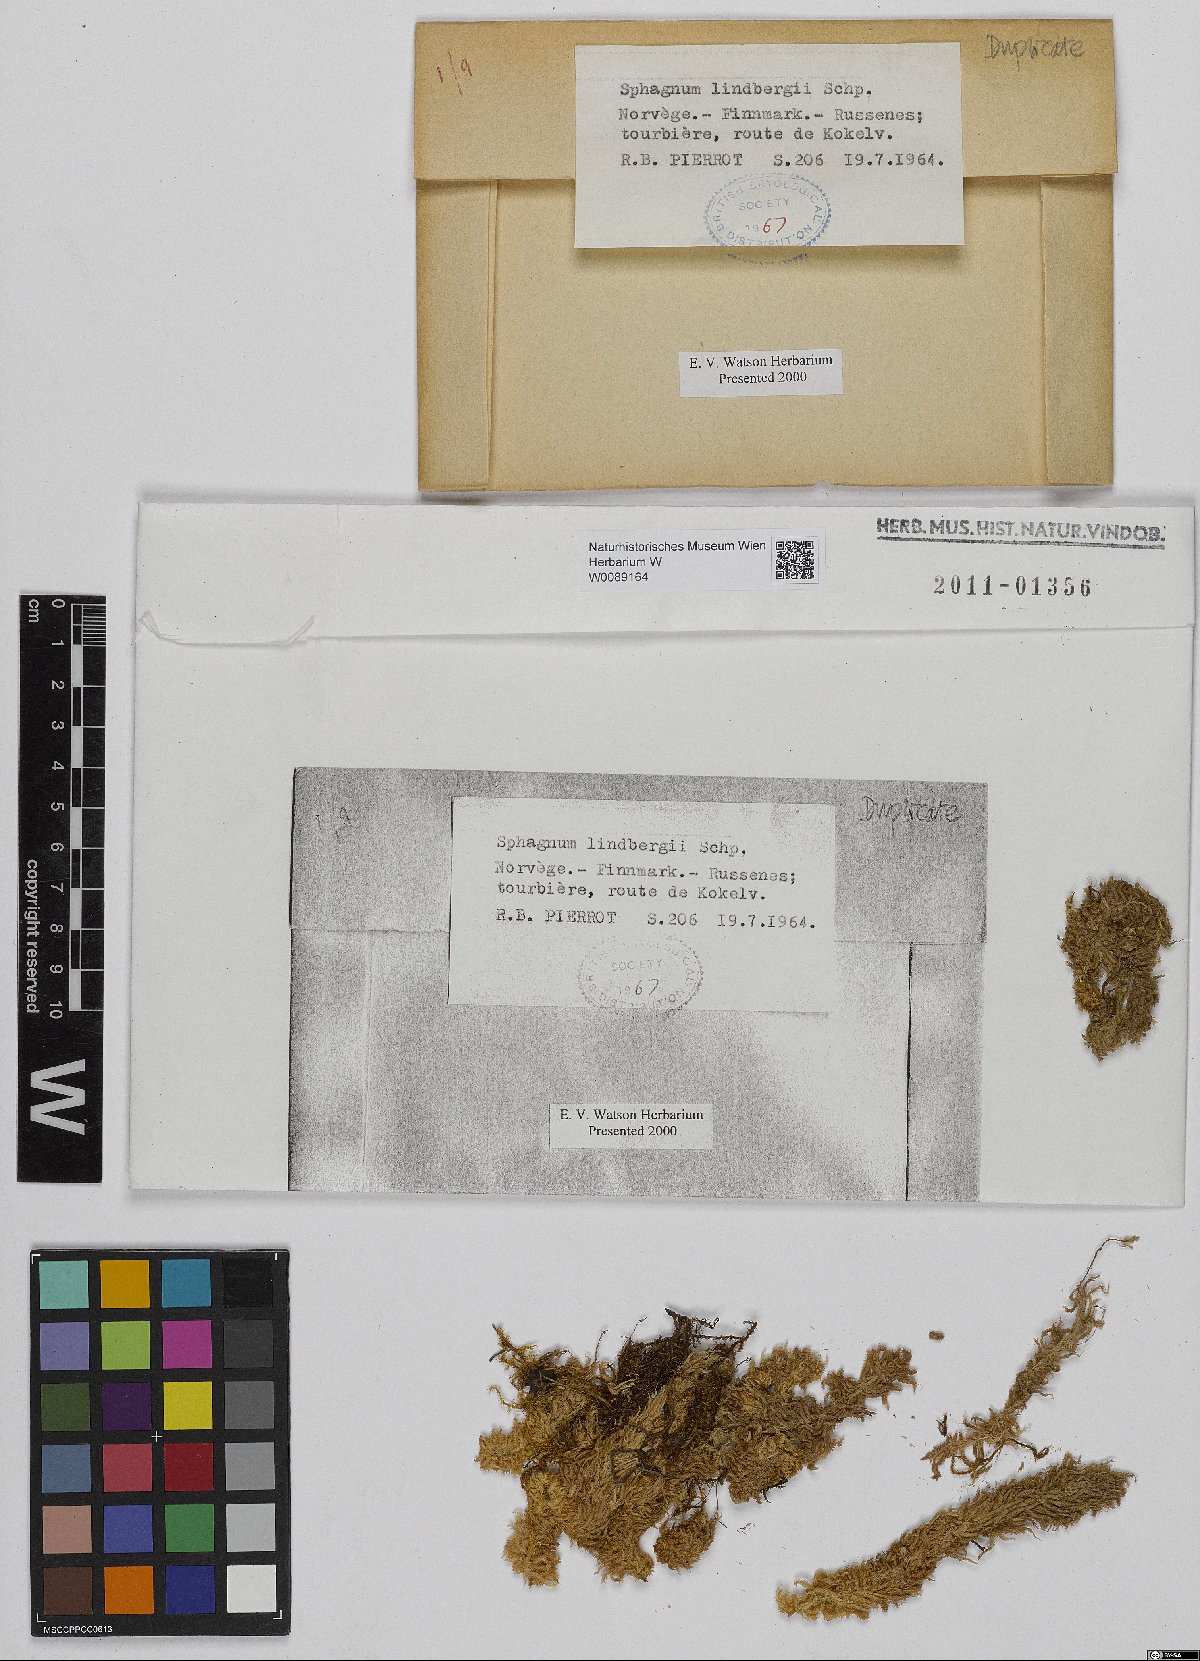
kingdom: Plantae
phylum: Bryophyta
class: Sphagnopsida
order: Sphagnales
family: Sphagnaceae
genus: Sphagnum
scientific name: Sphagnum lindbergii
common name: Lindberg's peat moss
